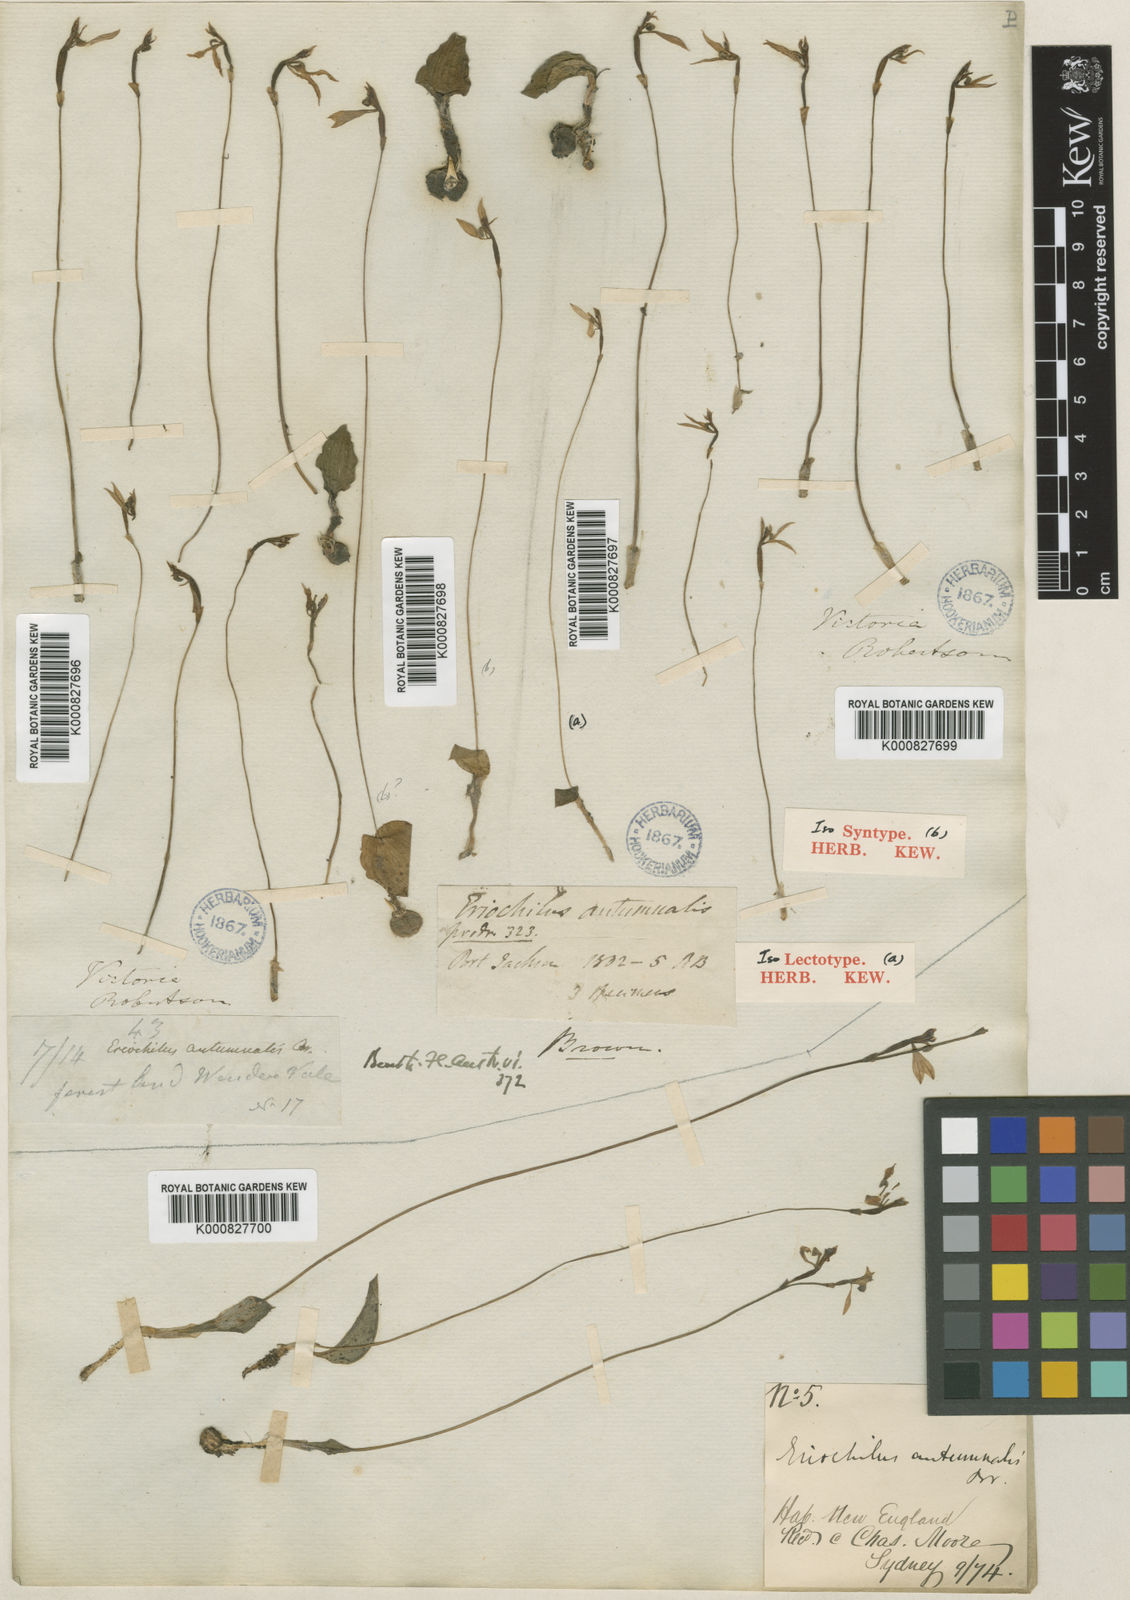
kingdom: Plantae
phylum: Tracheophyta
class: Liliopsida
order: Asparagales
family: Orchidaceae
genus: Eriochilus
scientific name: Eriochilus cucullatus
